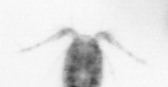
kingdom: Animalia
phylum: Arthropoda
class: Copepoda
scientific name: Copepoda
